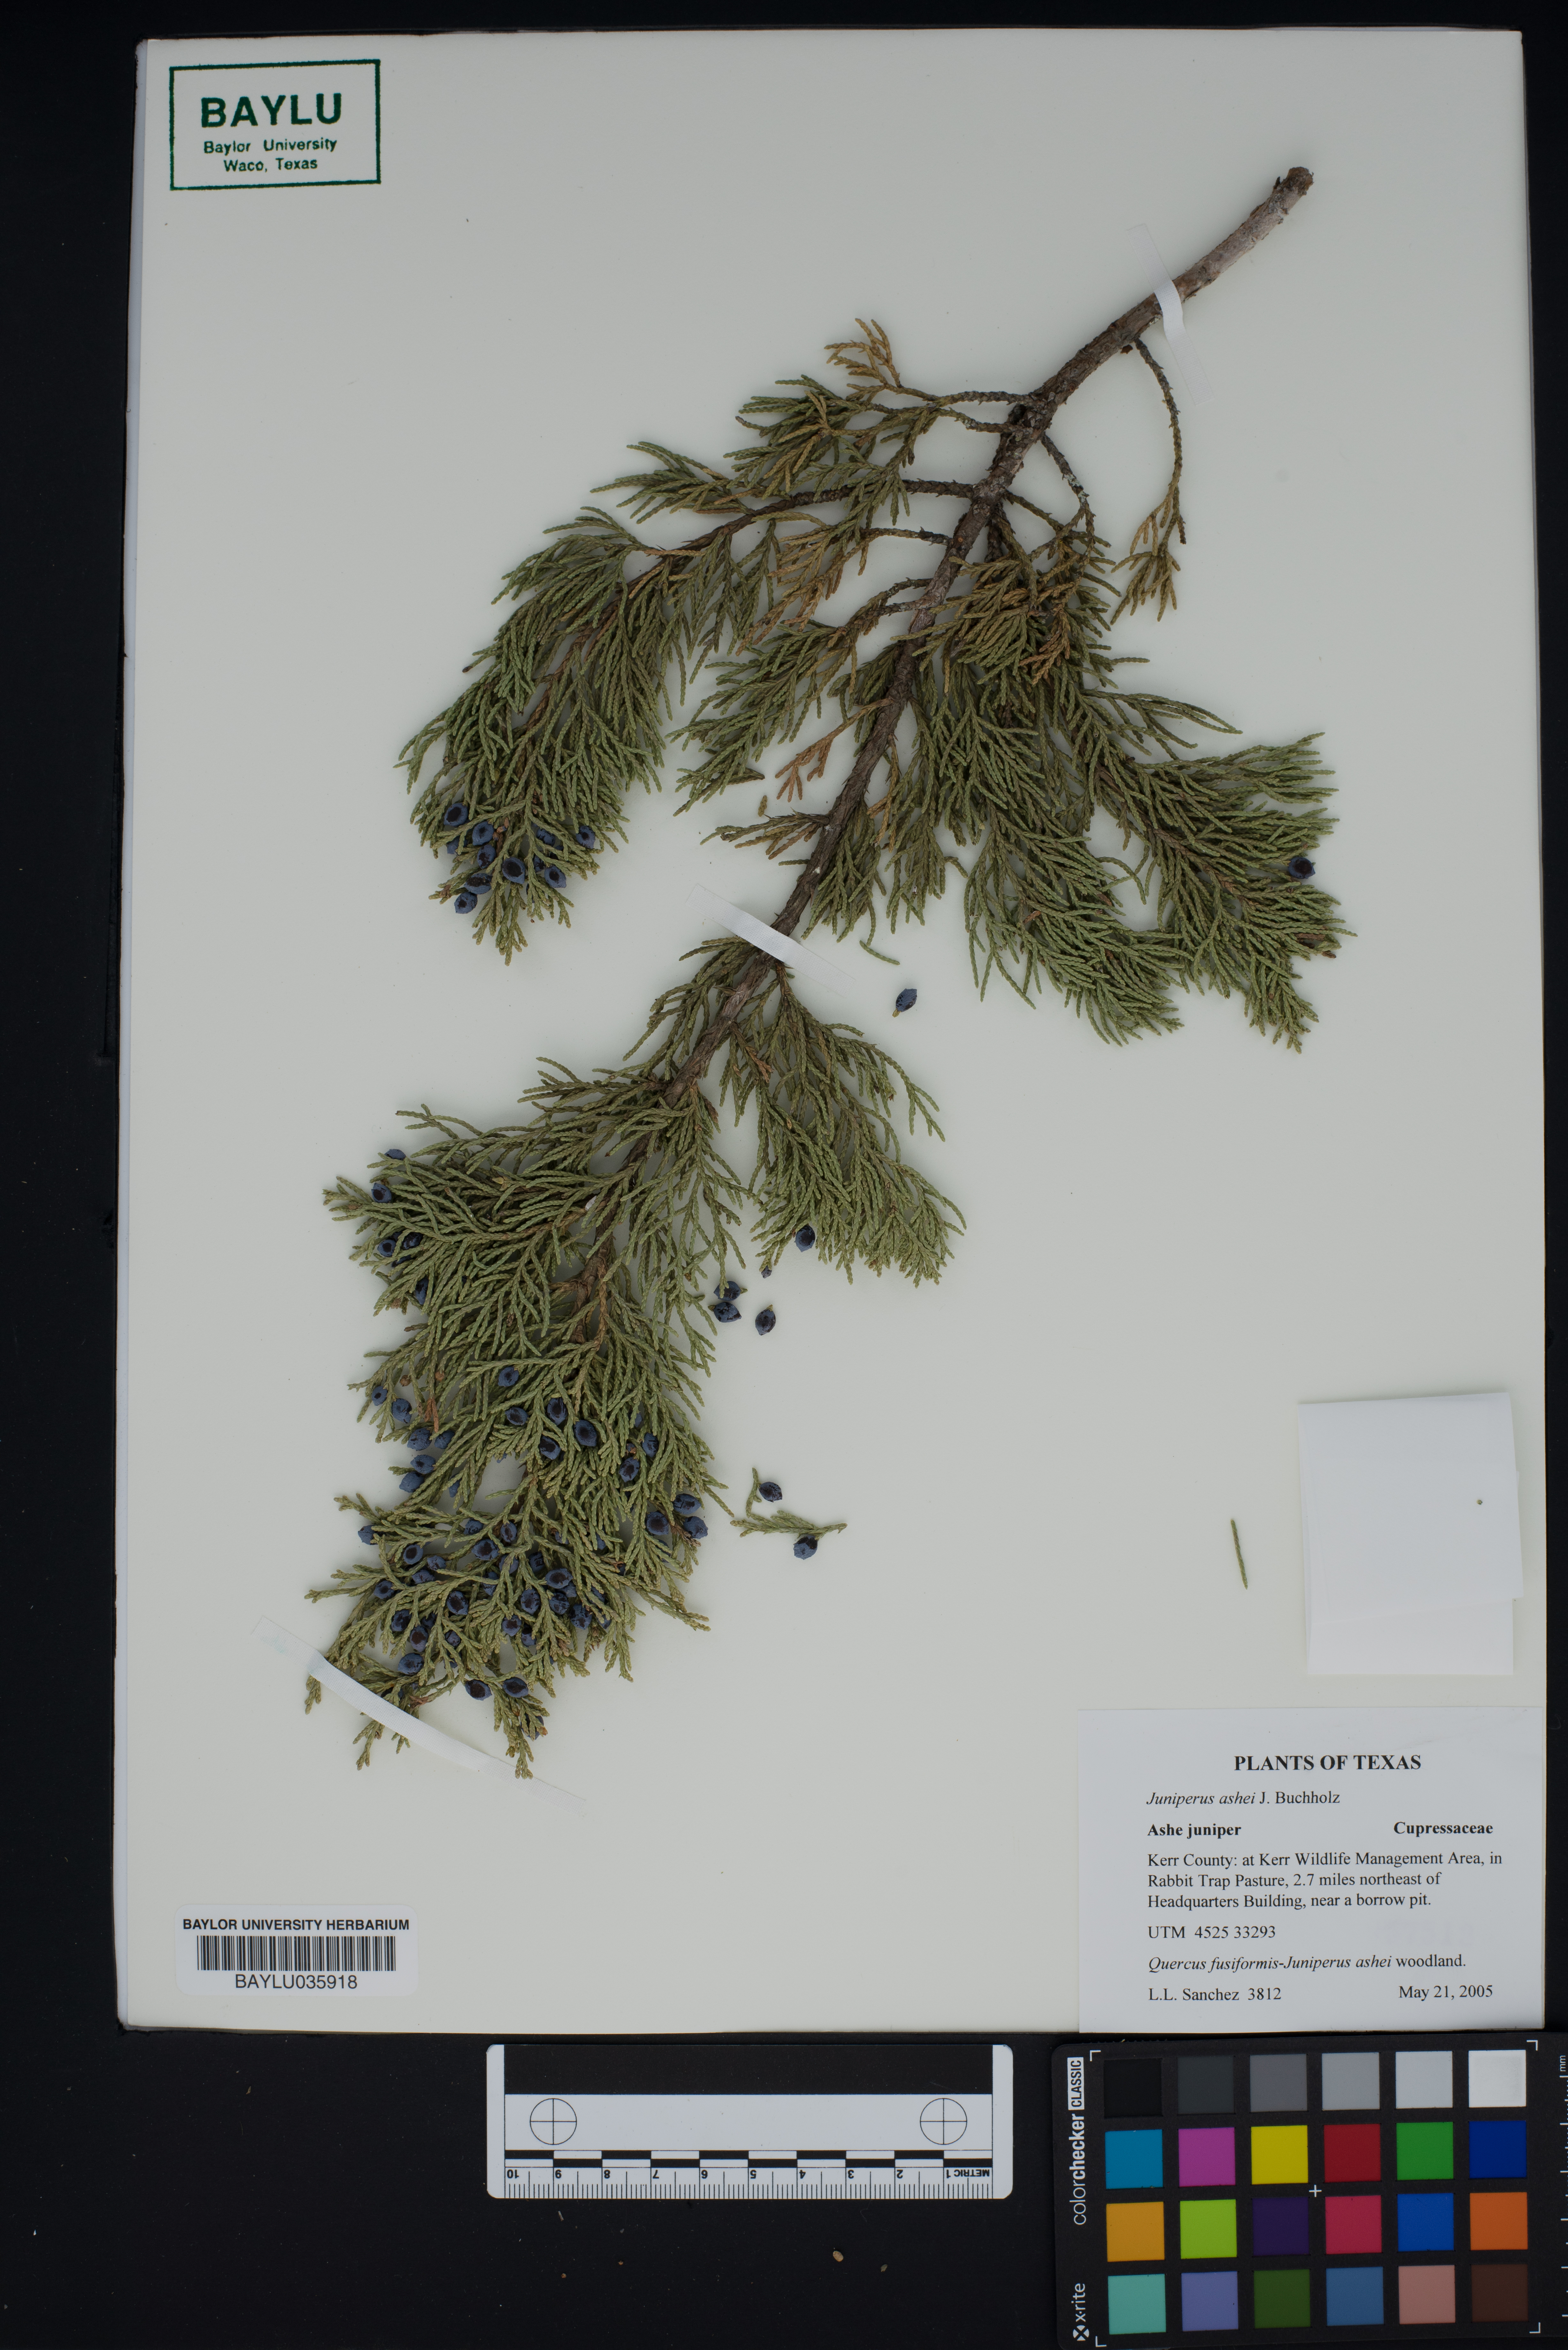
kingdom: Plantae
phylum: Tracheophyta
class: Pinopsida
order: Pinales
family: Cupressaceae
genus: Juniperus
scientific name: Juniperus ashei
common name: Mexican juniper
